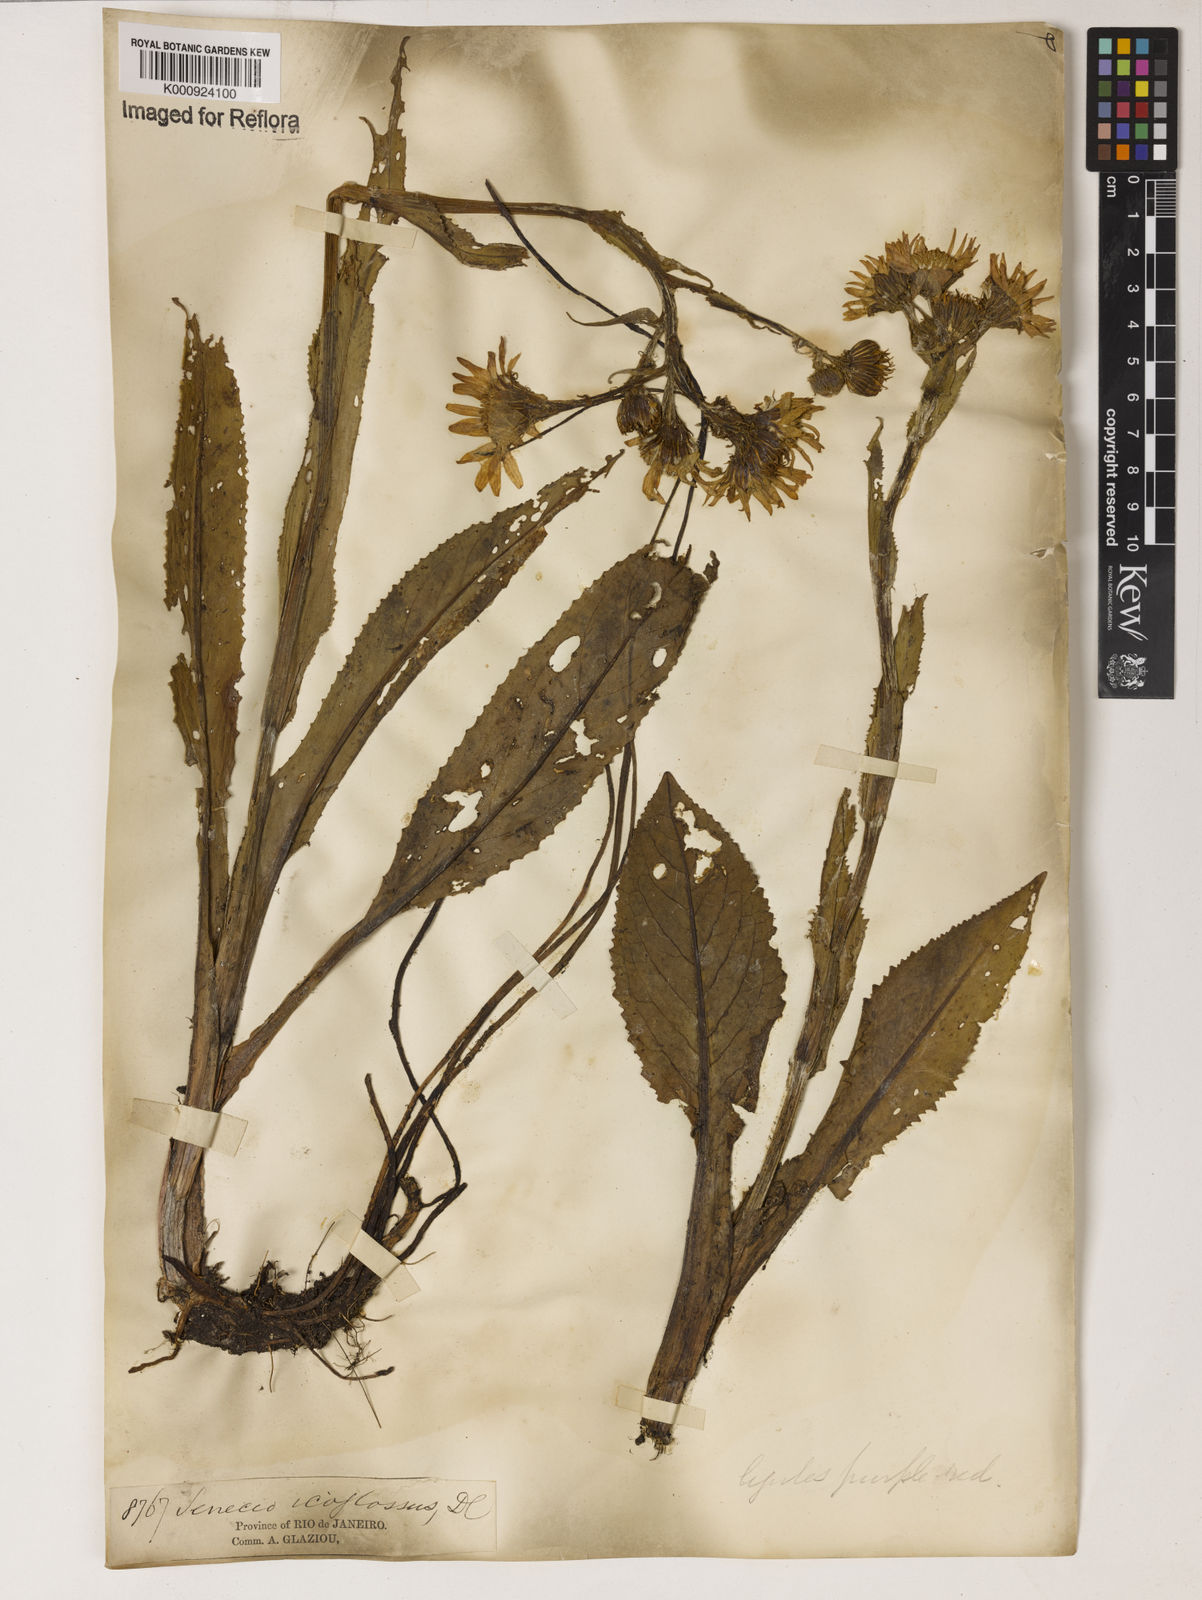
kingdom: Plantae
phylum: Tracheophyta
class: Magnoliopsida
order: Asterales
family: Asteraceae
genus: Senecio
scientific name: Senecio icoglossus
